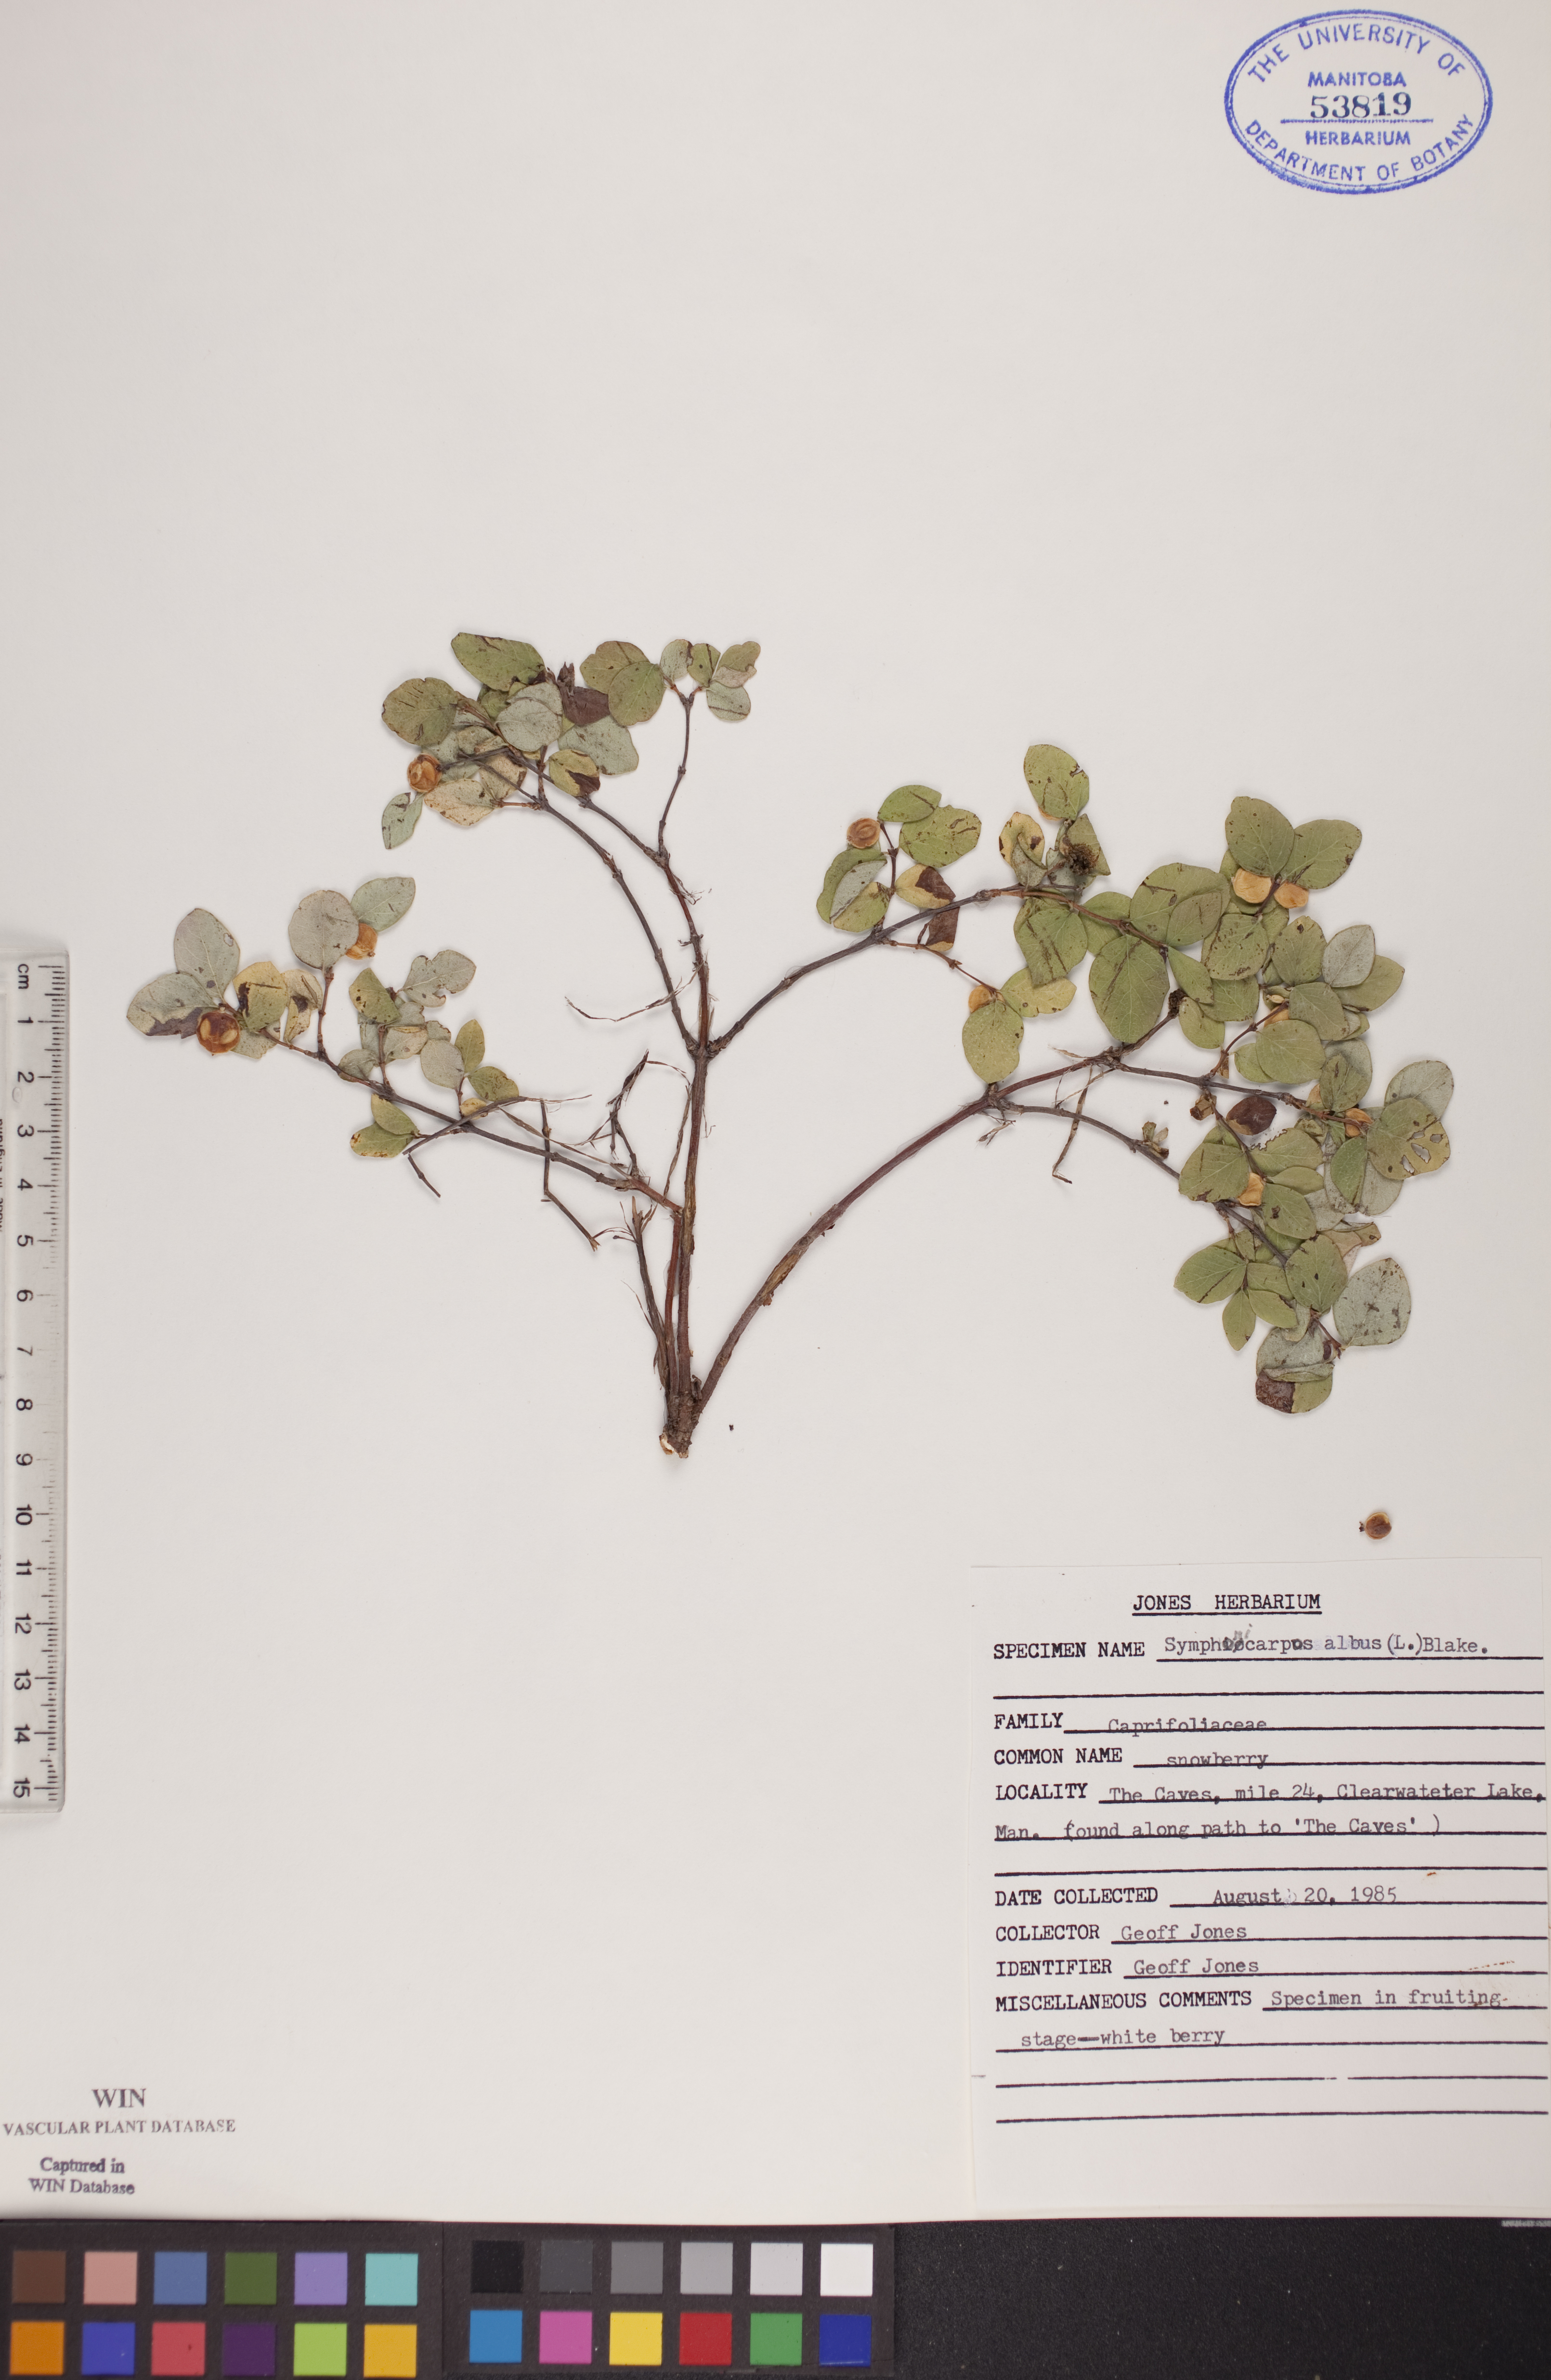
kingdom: Plantae
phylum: Tracheophyta
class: Magnoliopsida
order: Dipsacales
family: Caprifoliaceae
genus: Symphoricarpos
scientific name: Symphoricarpos albus
